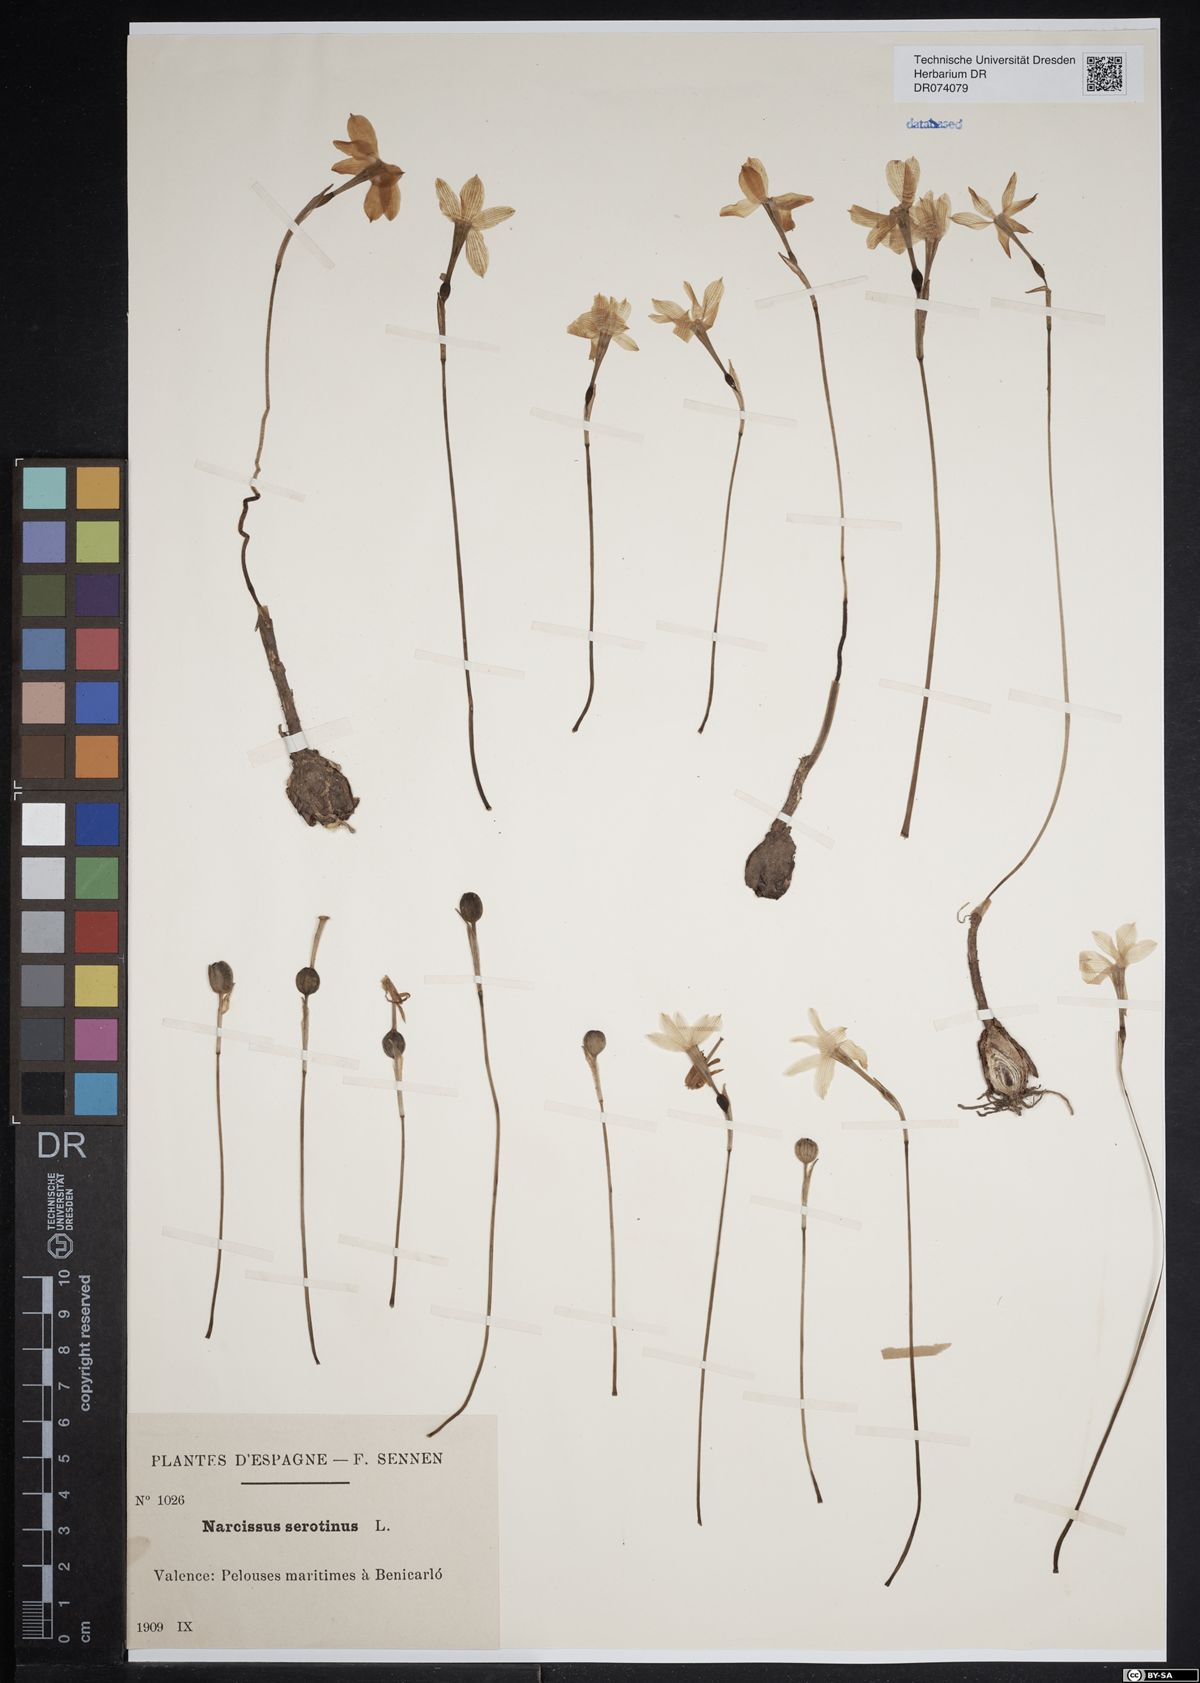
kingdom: Plantae
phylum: Tracheophyta
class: Liliopsida
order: Asparagales
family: Amaryllidaceae
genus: Narcissus
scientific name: Narcissus serotinus
